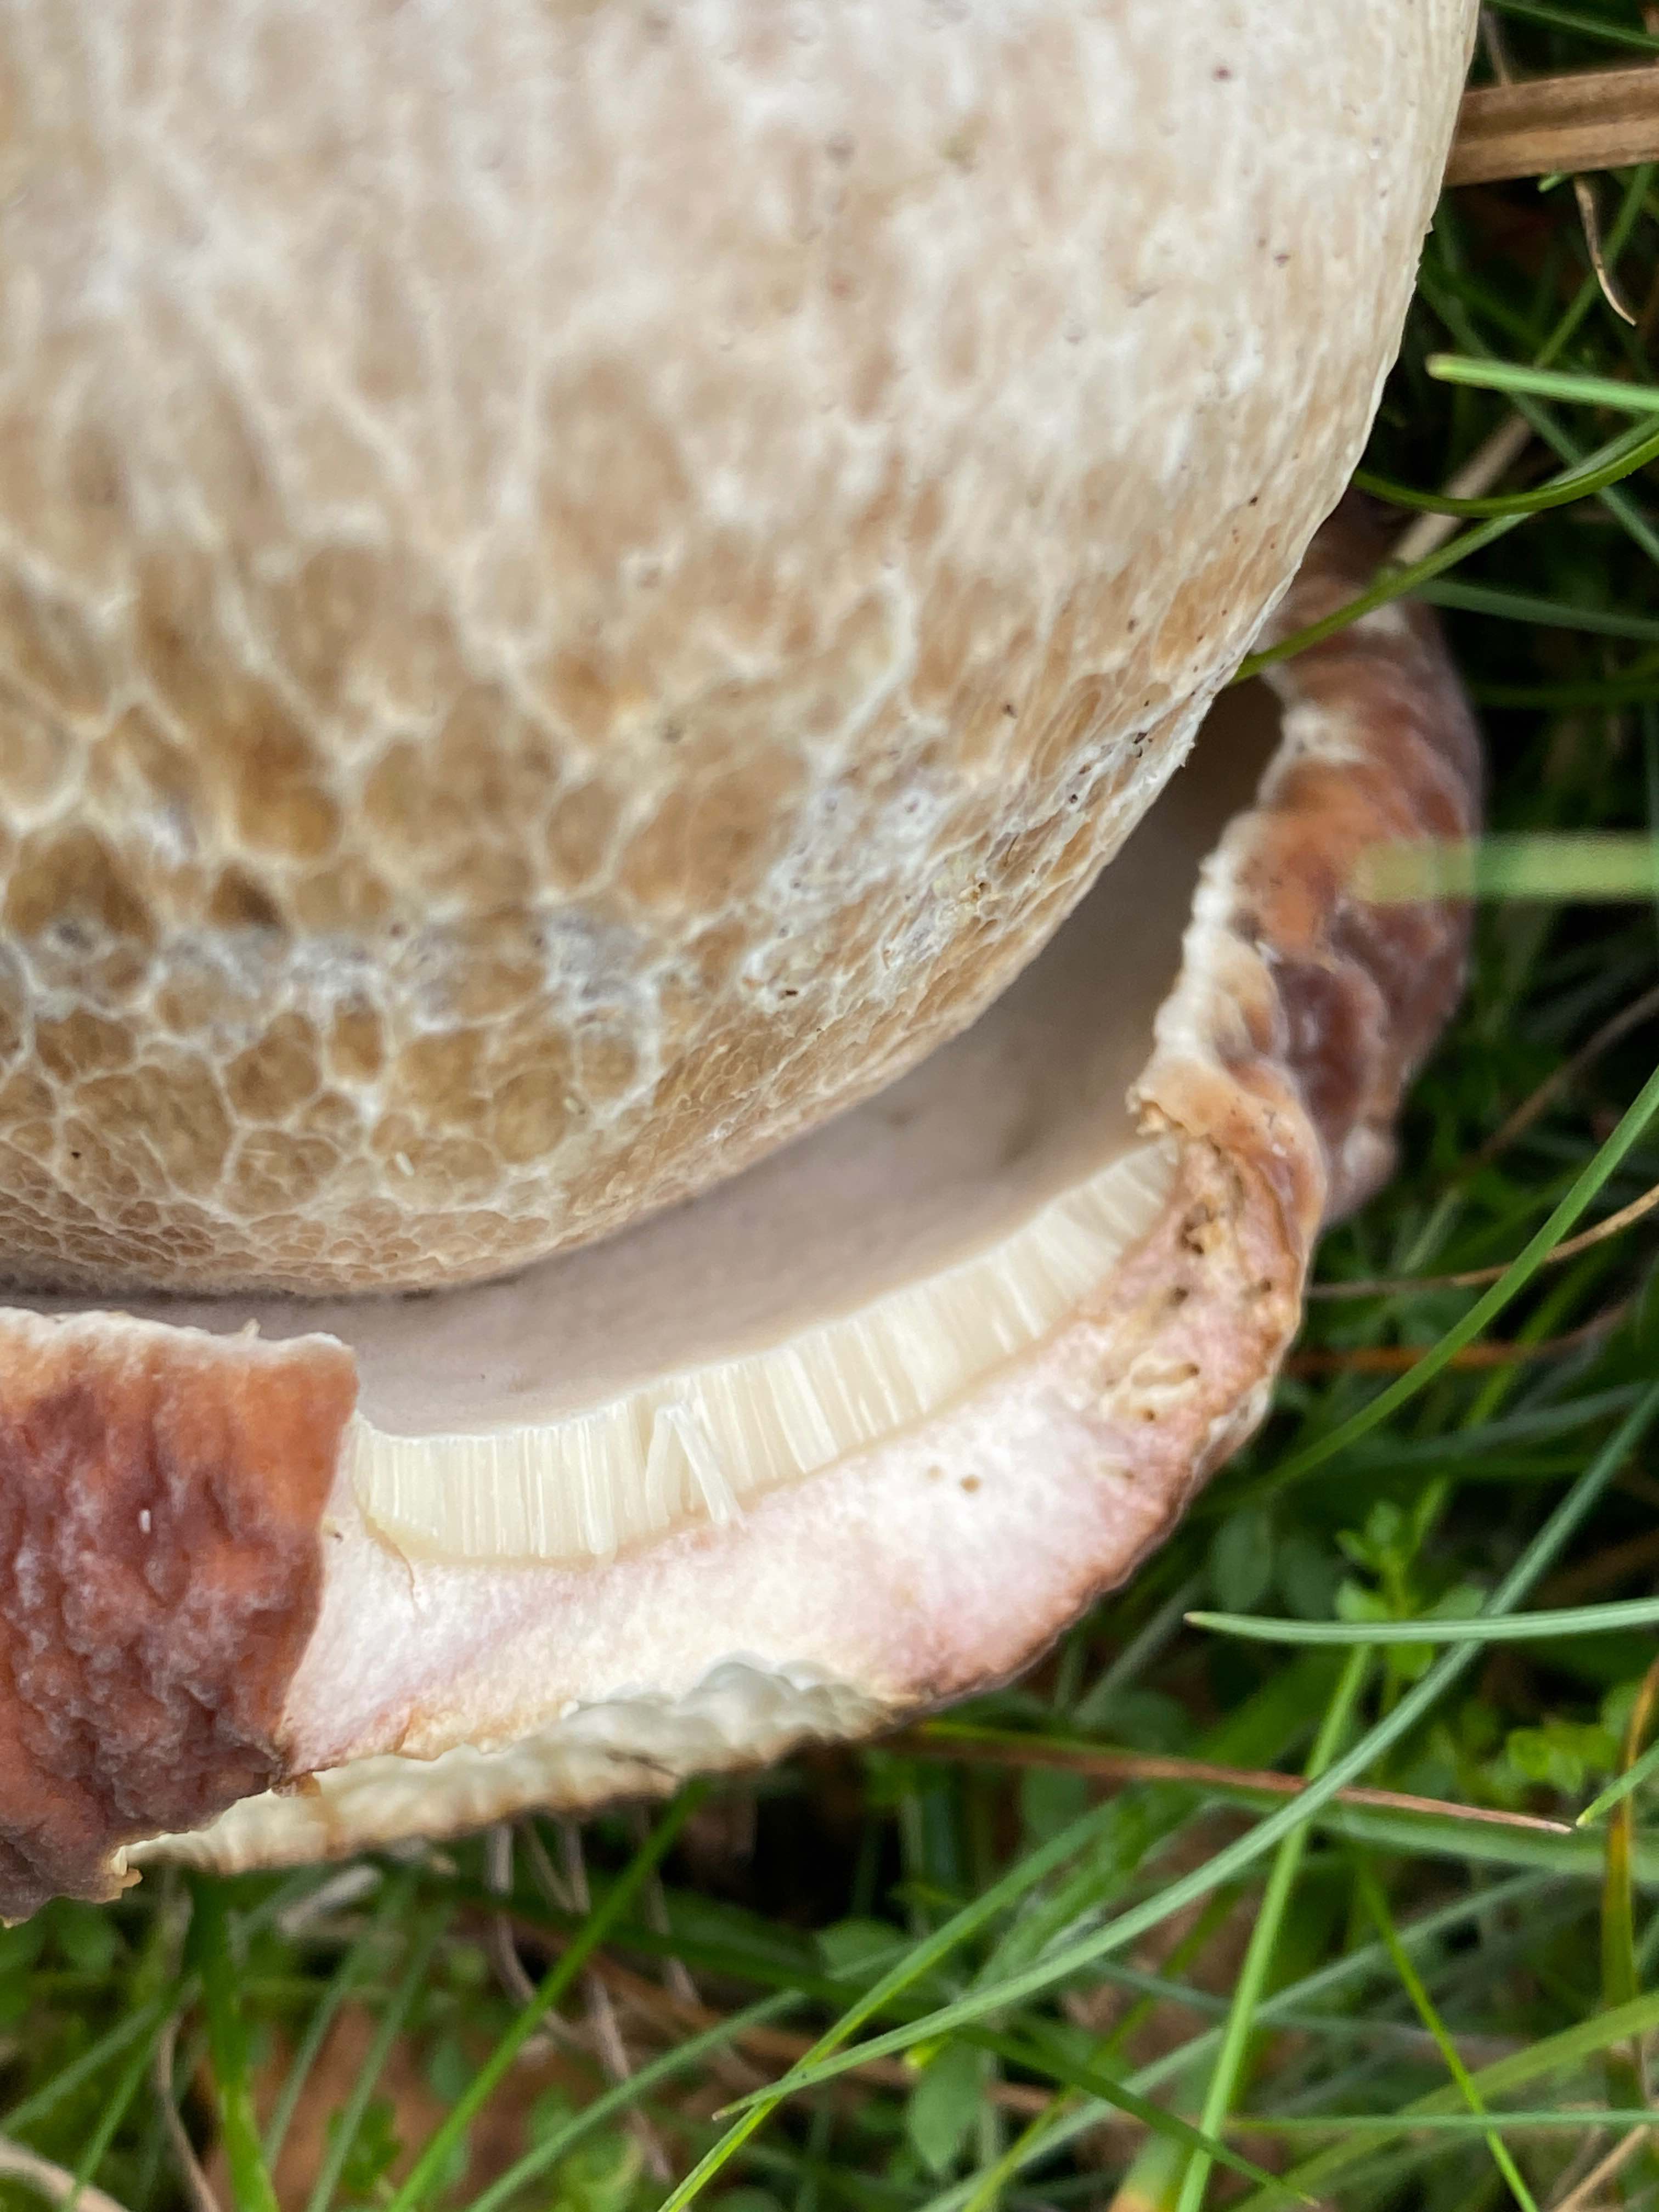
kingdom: Fungi
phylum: Basidiomycota
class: Agaricomycetes
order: Boletales
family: Boletaceae
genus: Boletus
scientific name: Boletus edulis
